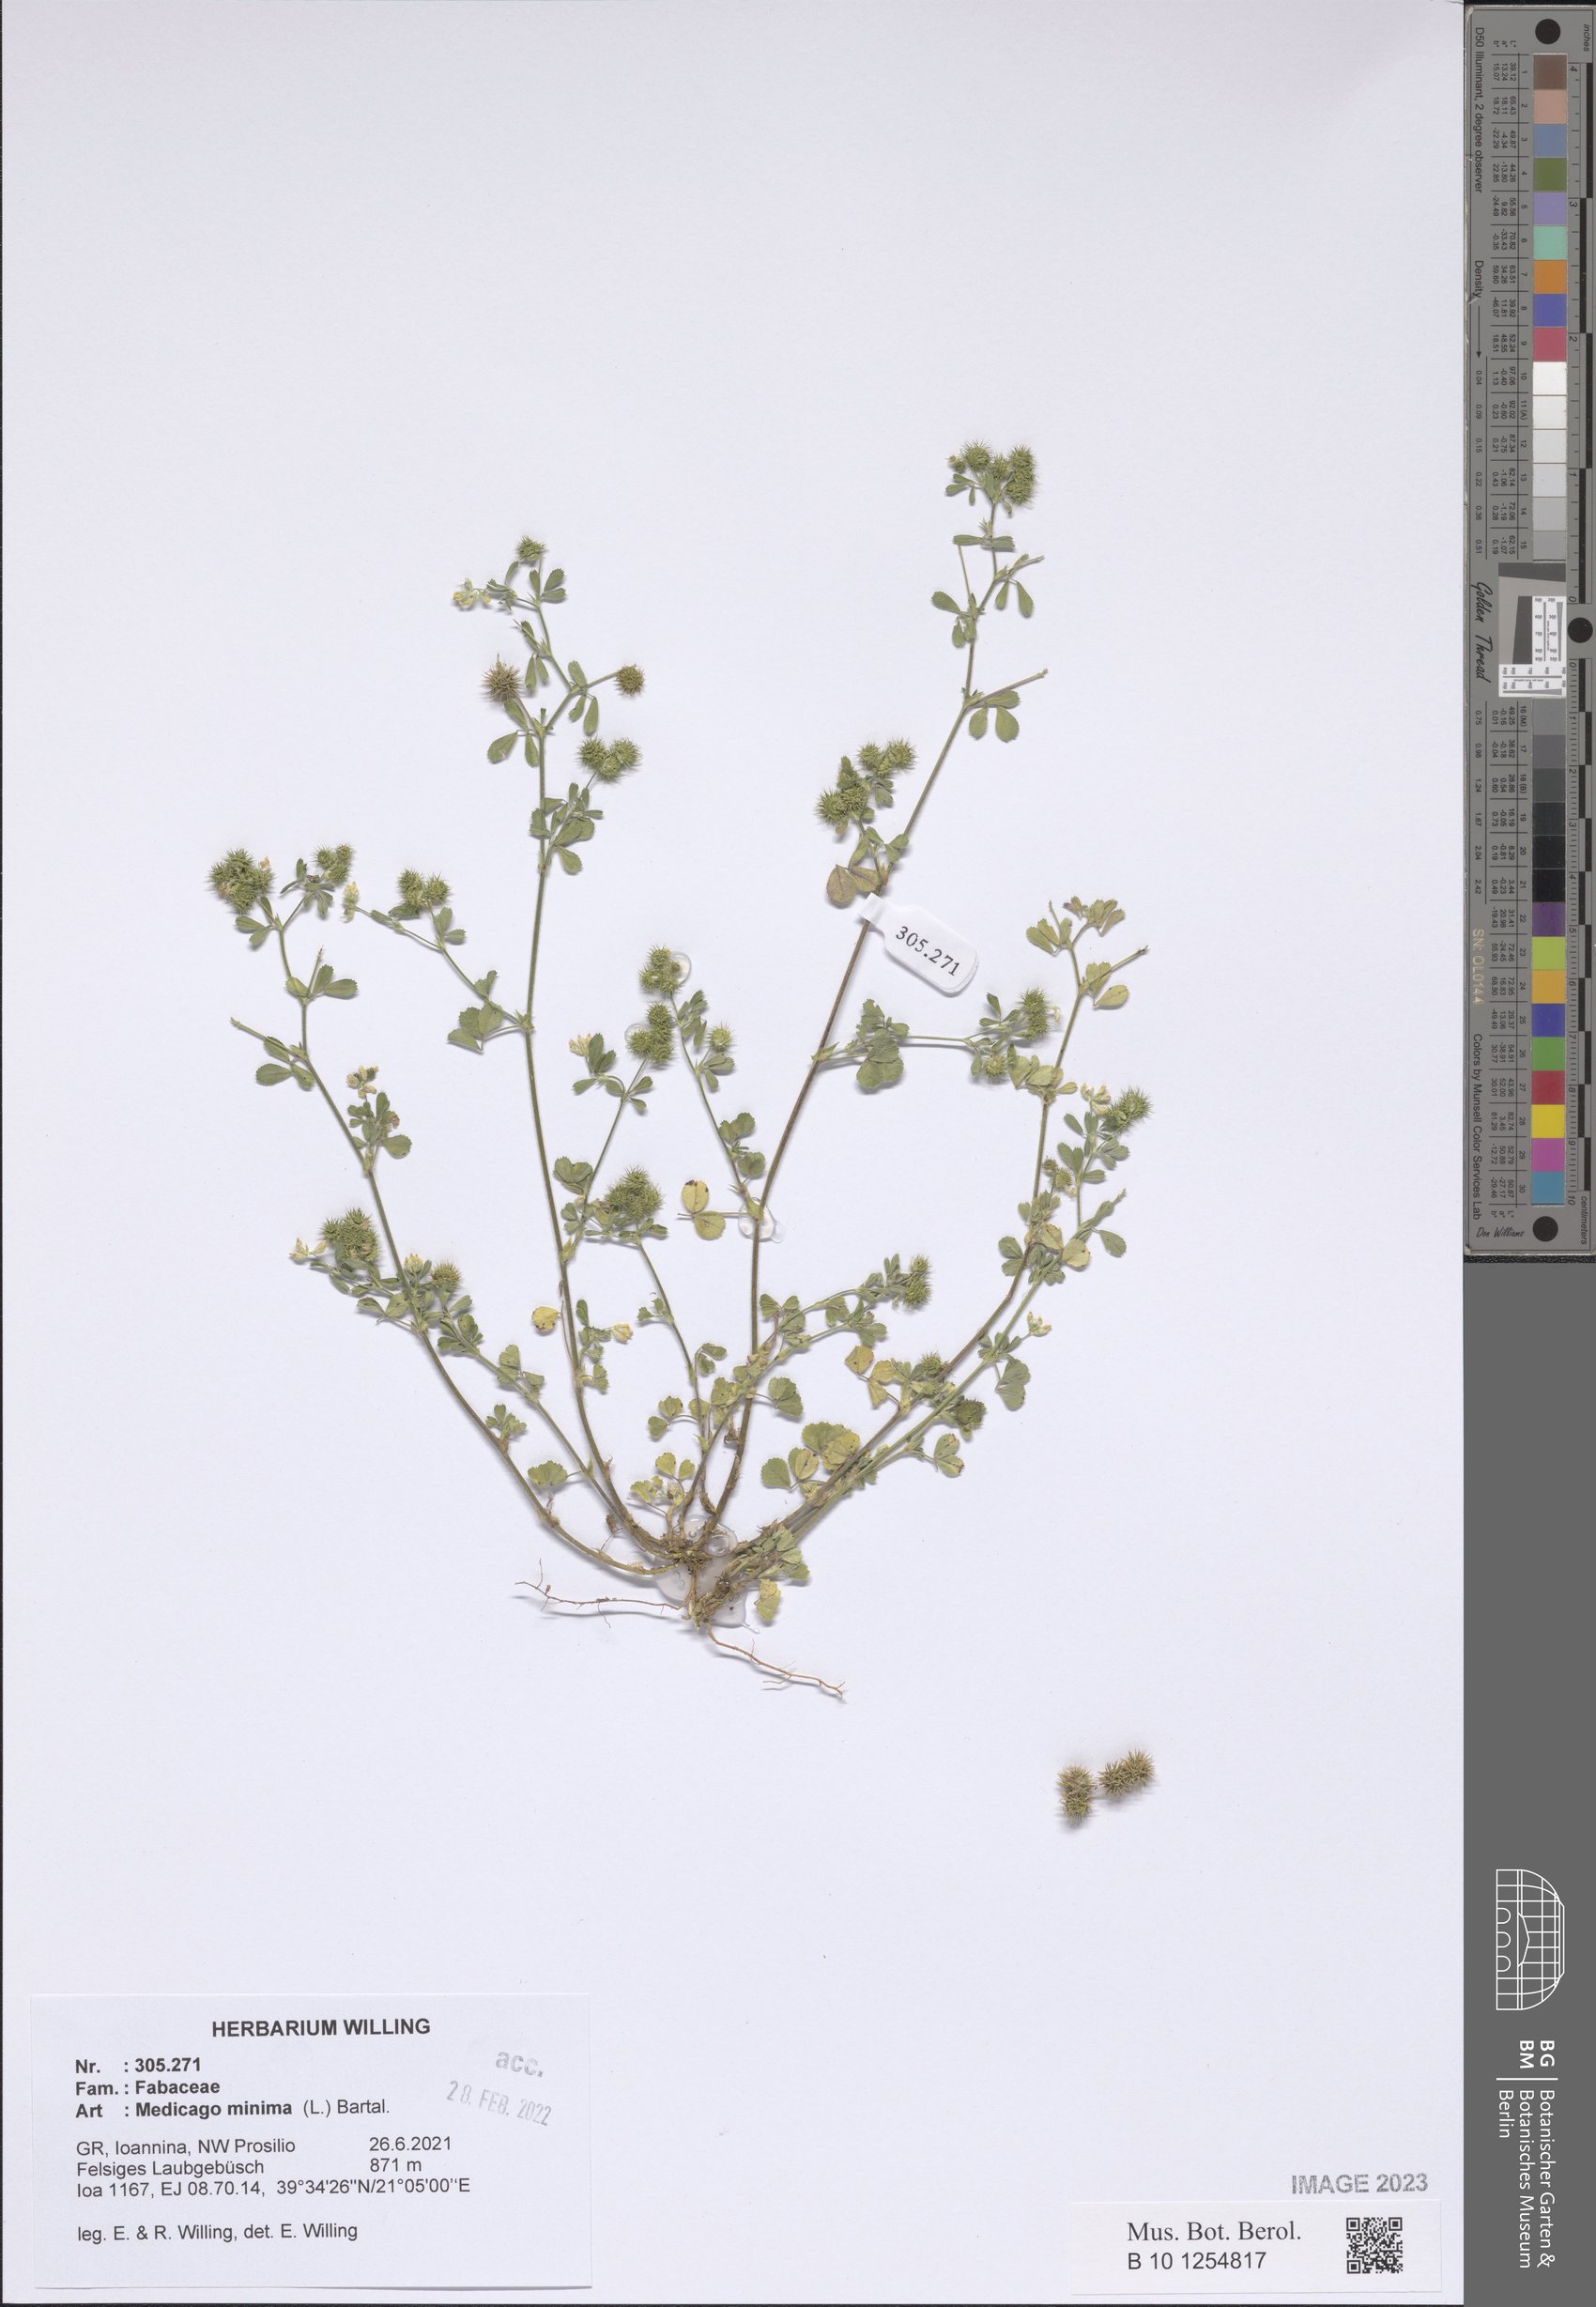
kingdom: Plantae
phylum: Tracheophyta
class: Magnoliopsida
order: Fabales
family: Fabaceae
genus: Medicago
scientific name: Medicago minima
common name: Little bur-clover
